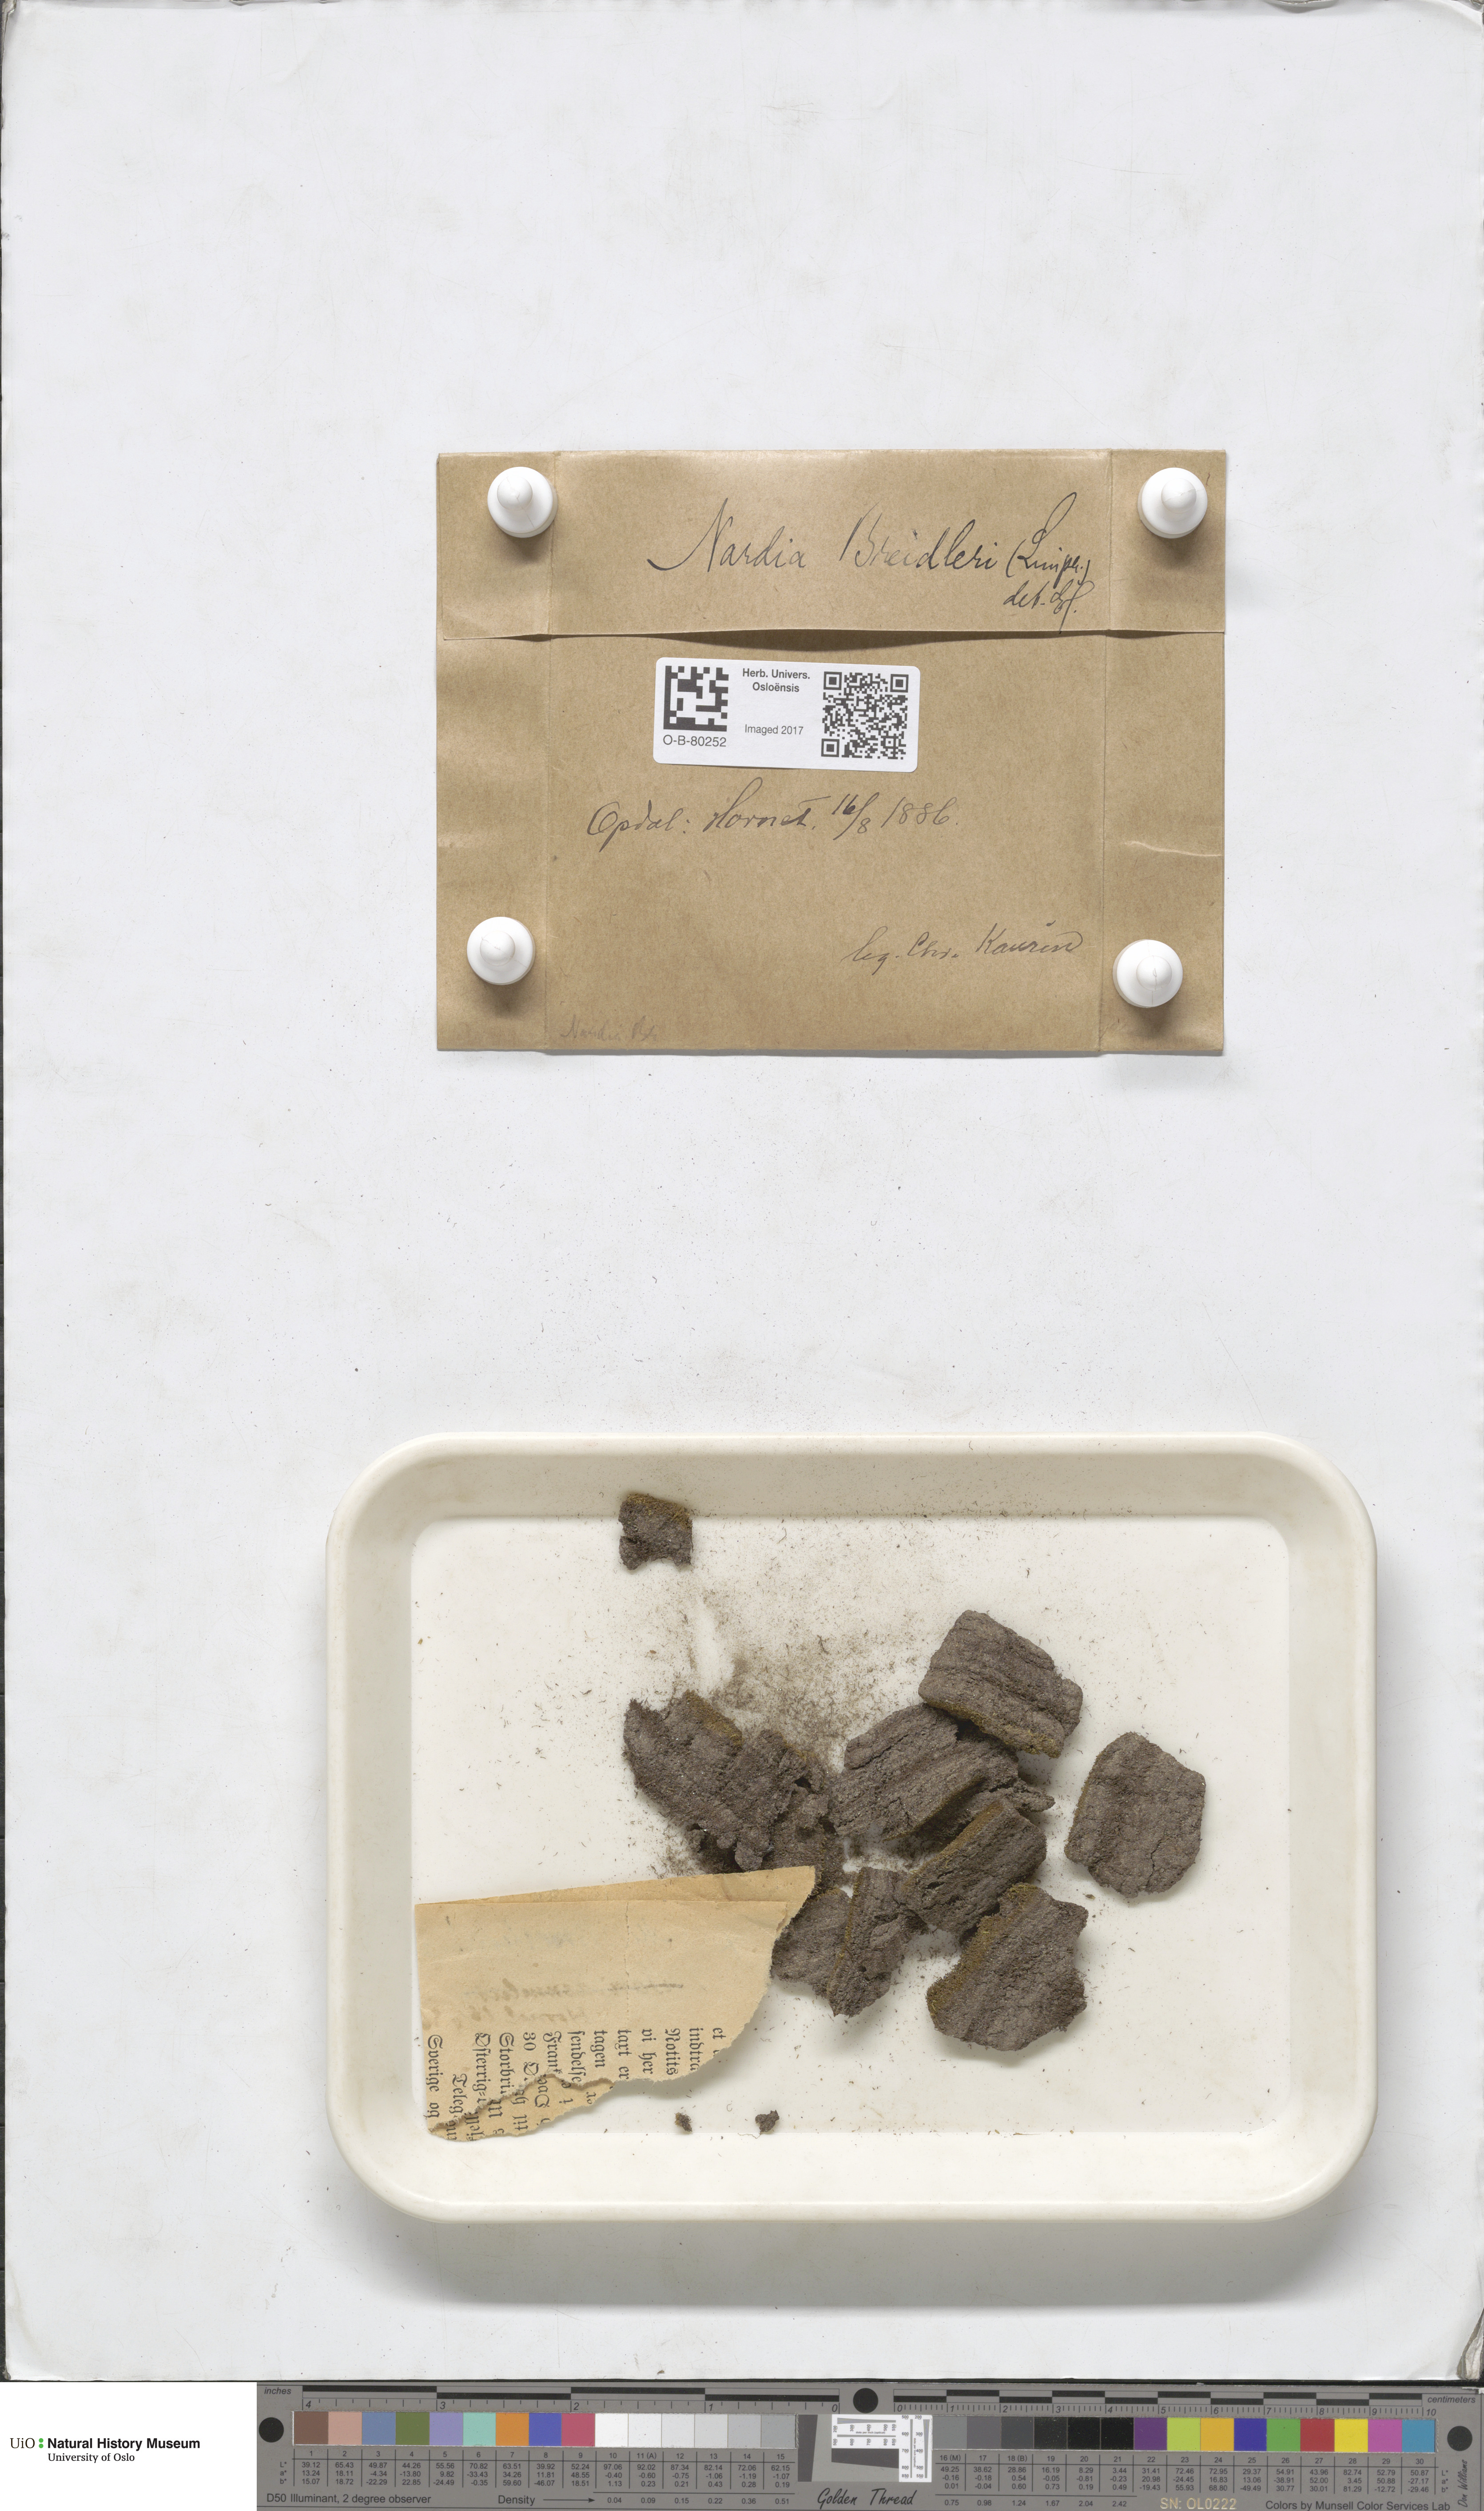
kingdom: Plantae
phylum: Marchantiophyta
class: Jungermanniopsida
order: Jungermanniales
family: Gymnomitriaceae
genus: Nardia
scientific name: Nardia breidleri
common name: Book flapwort
